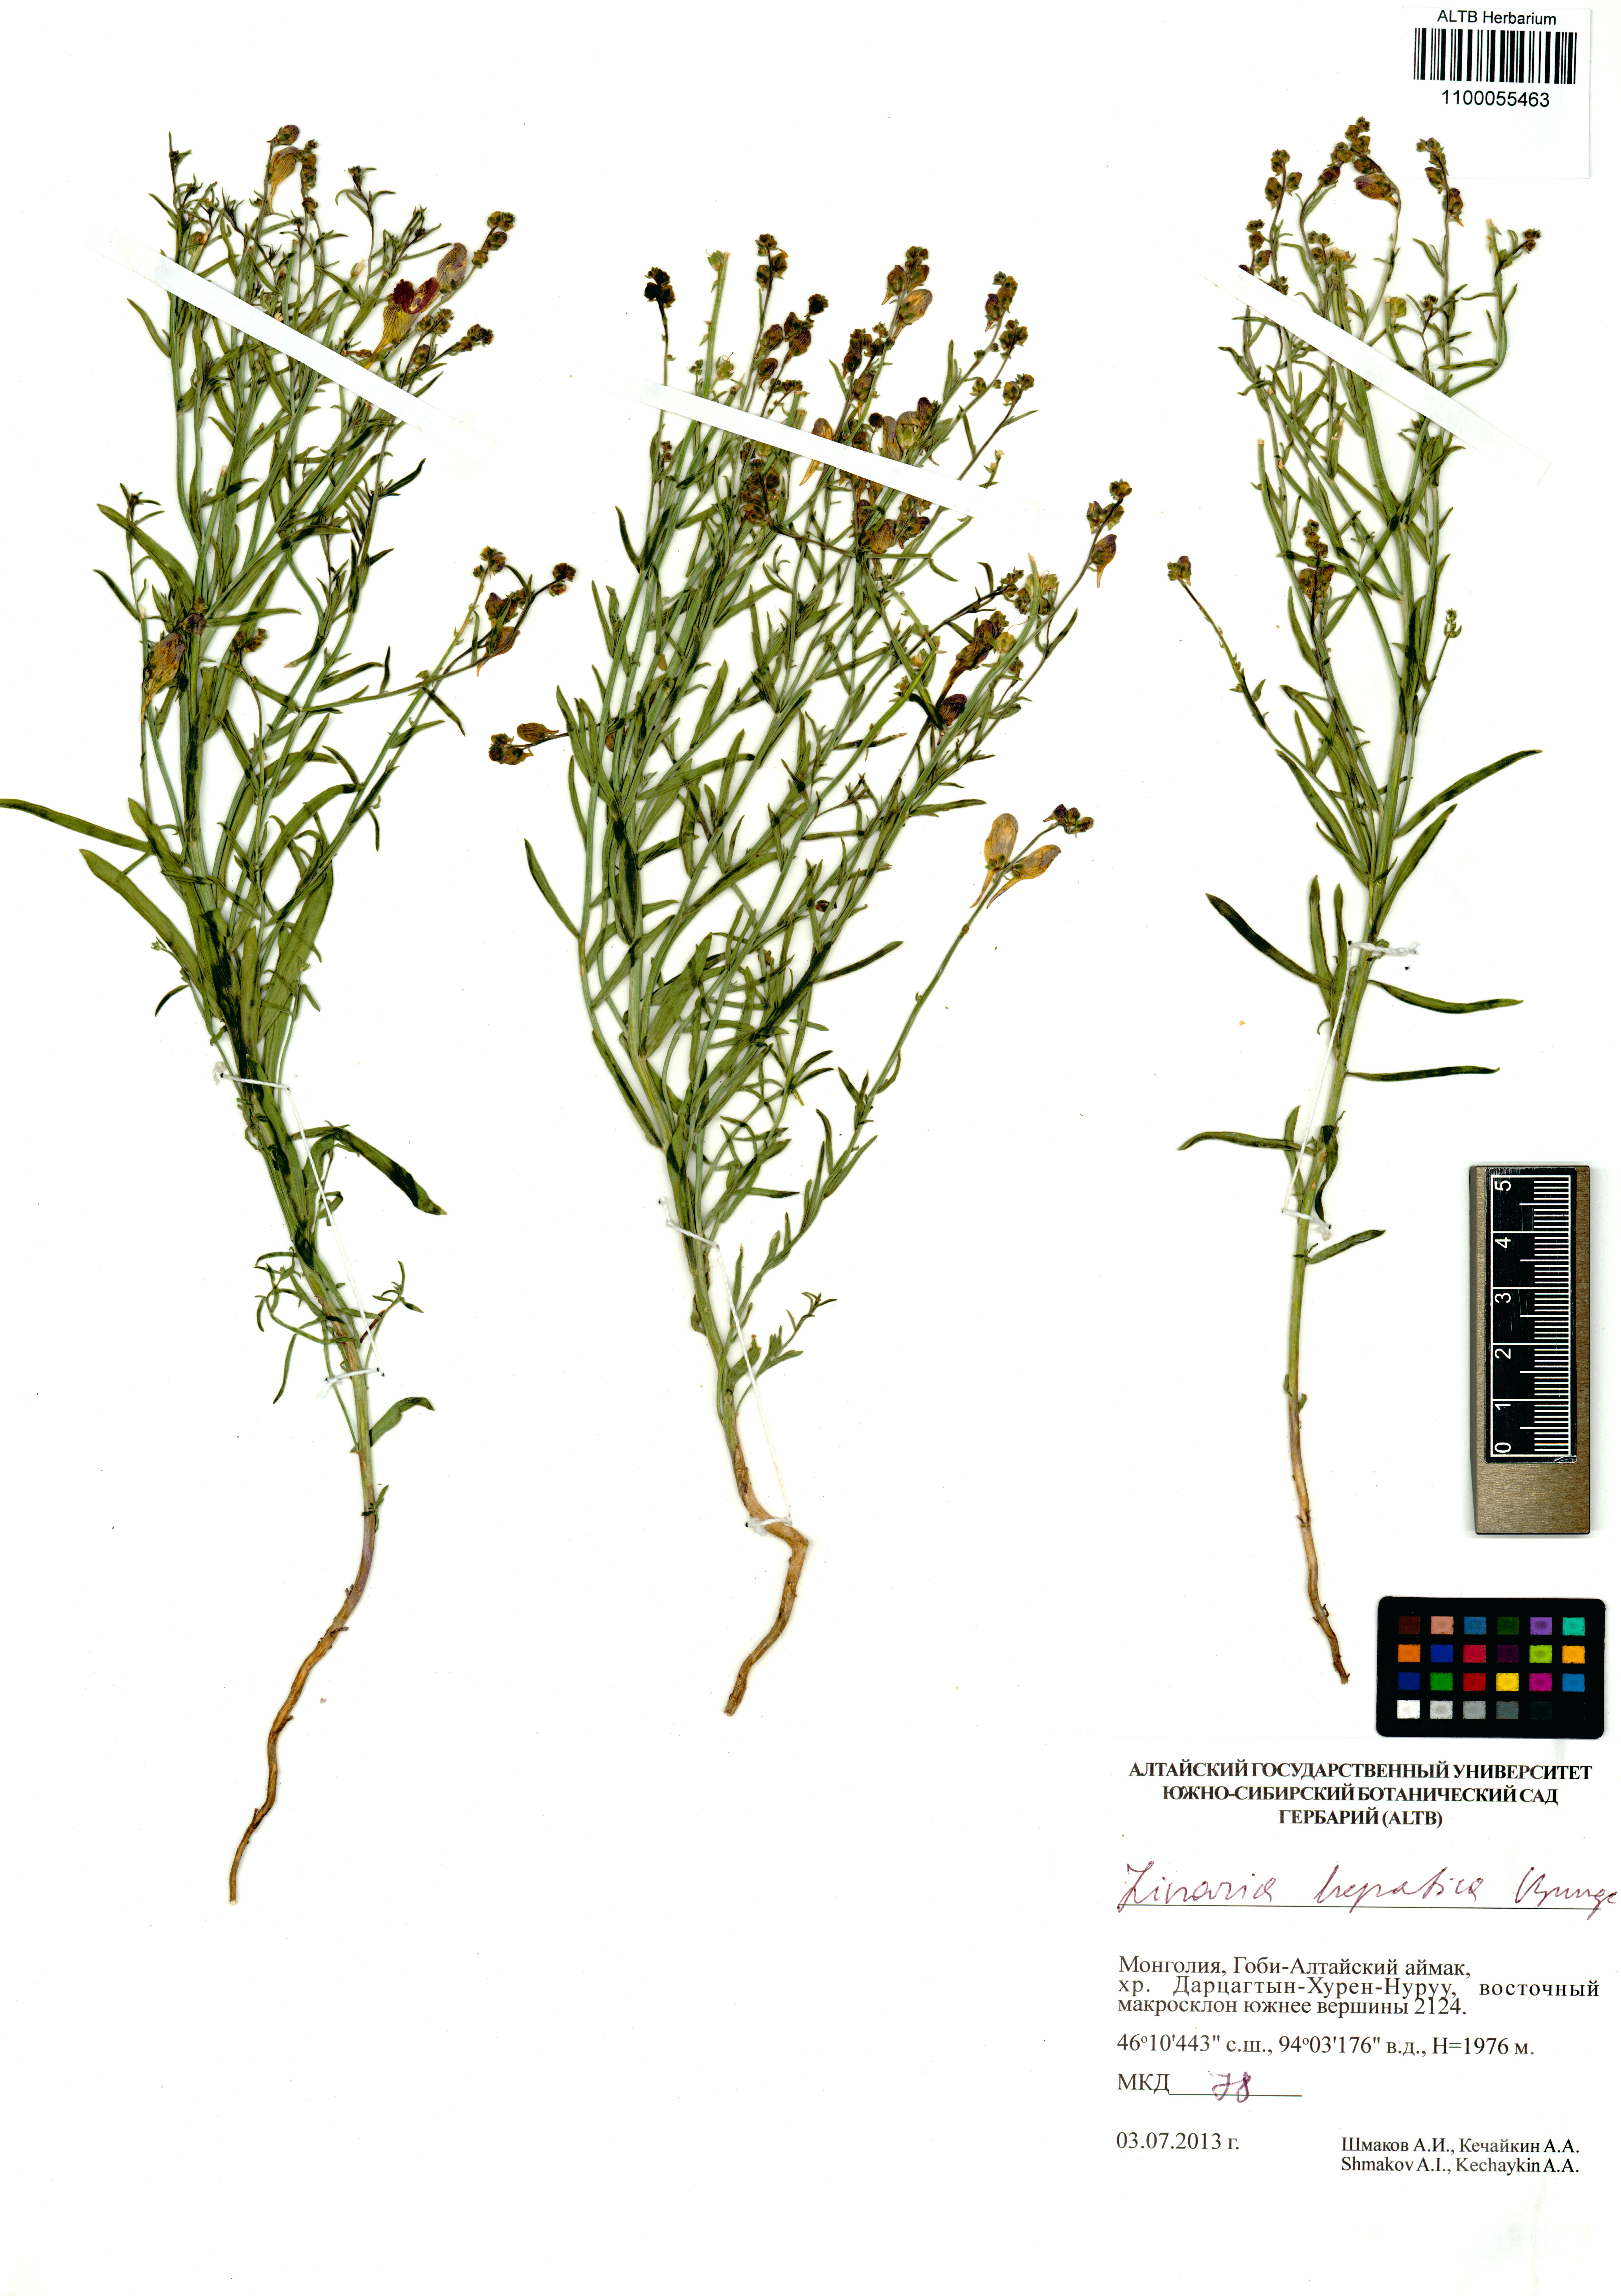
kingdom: Plantae
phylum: Tracheophyta
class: Magnoliopsida
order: Lamiales
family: Plantaginaceae
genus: Linaria
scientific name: Linaria hepatica
